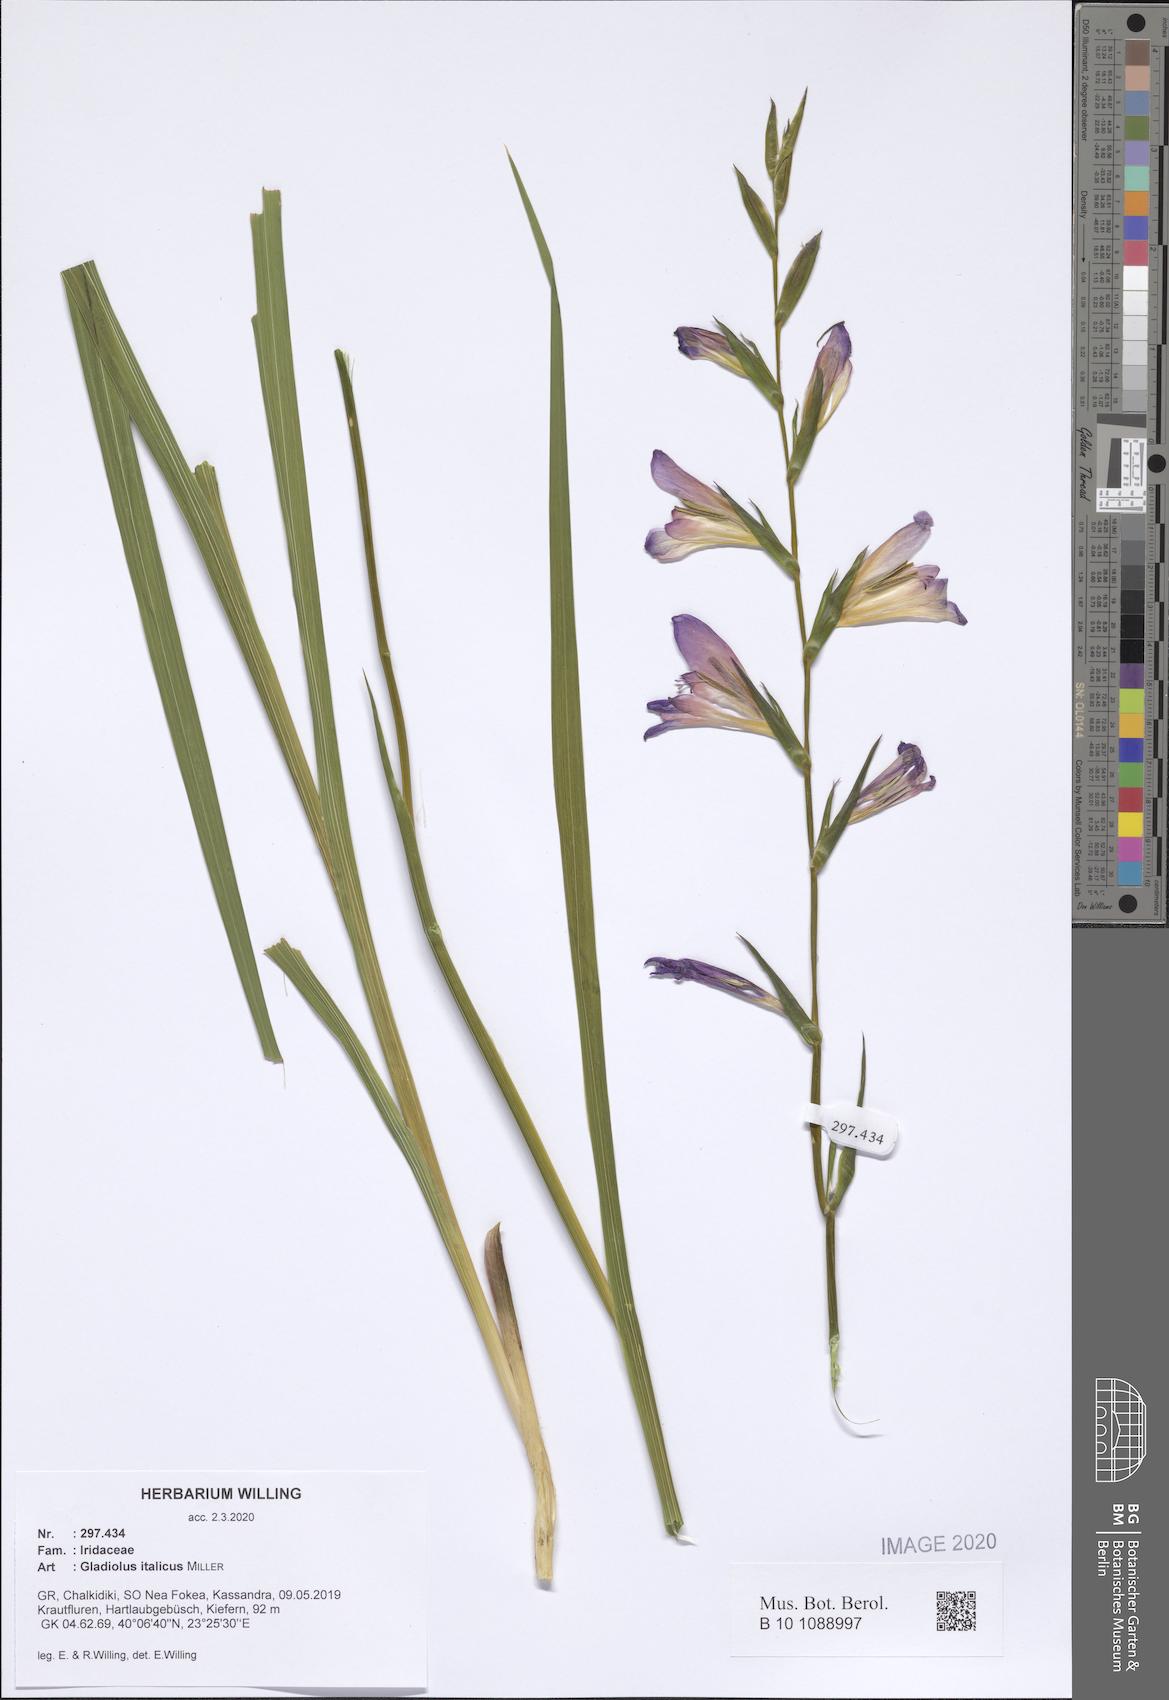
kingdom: Plantae
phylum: Tracheophyta
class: Liliopsida
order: Asparagales
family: Iridaceae
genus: Gladiolus
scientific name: Gladiolus italicus
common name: Field gladiolus
